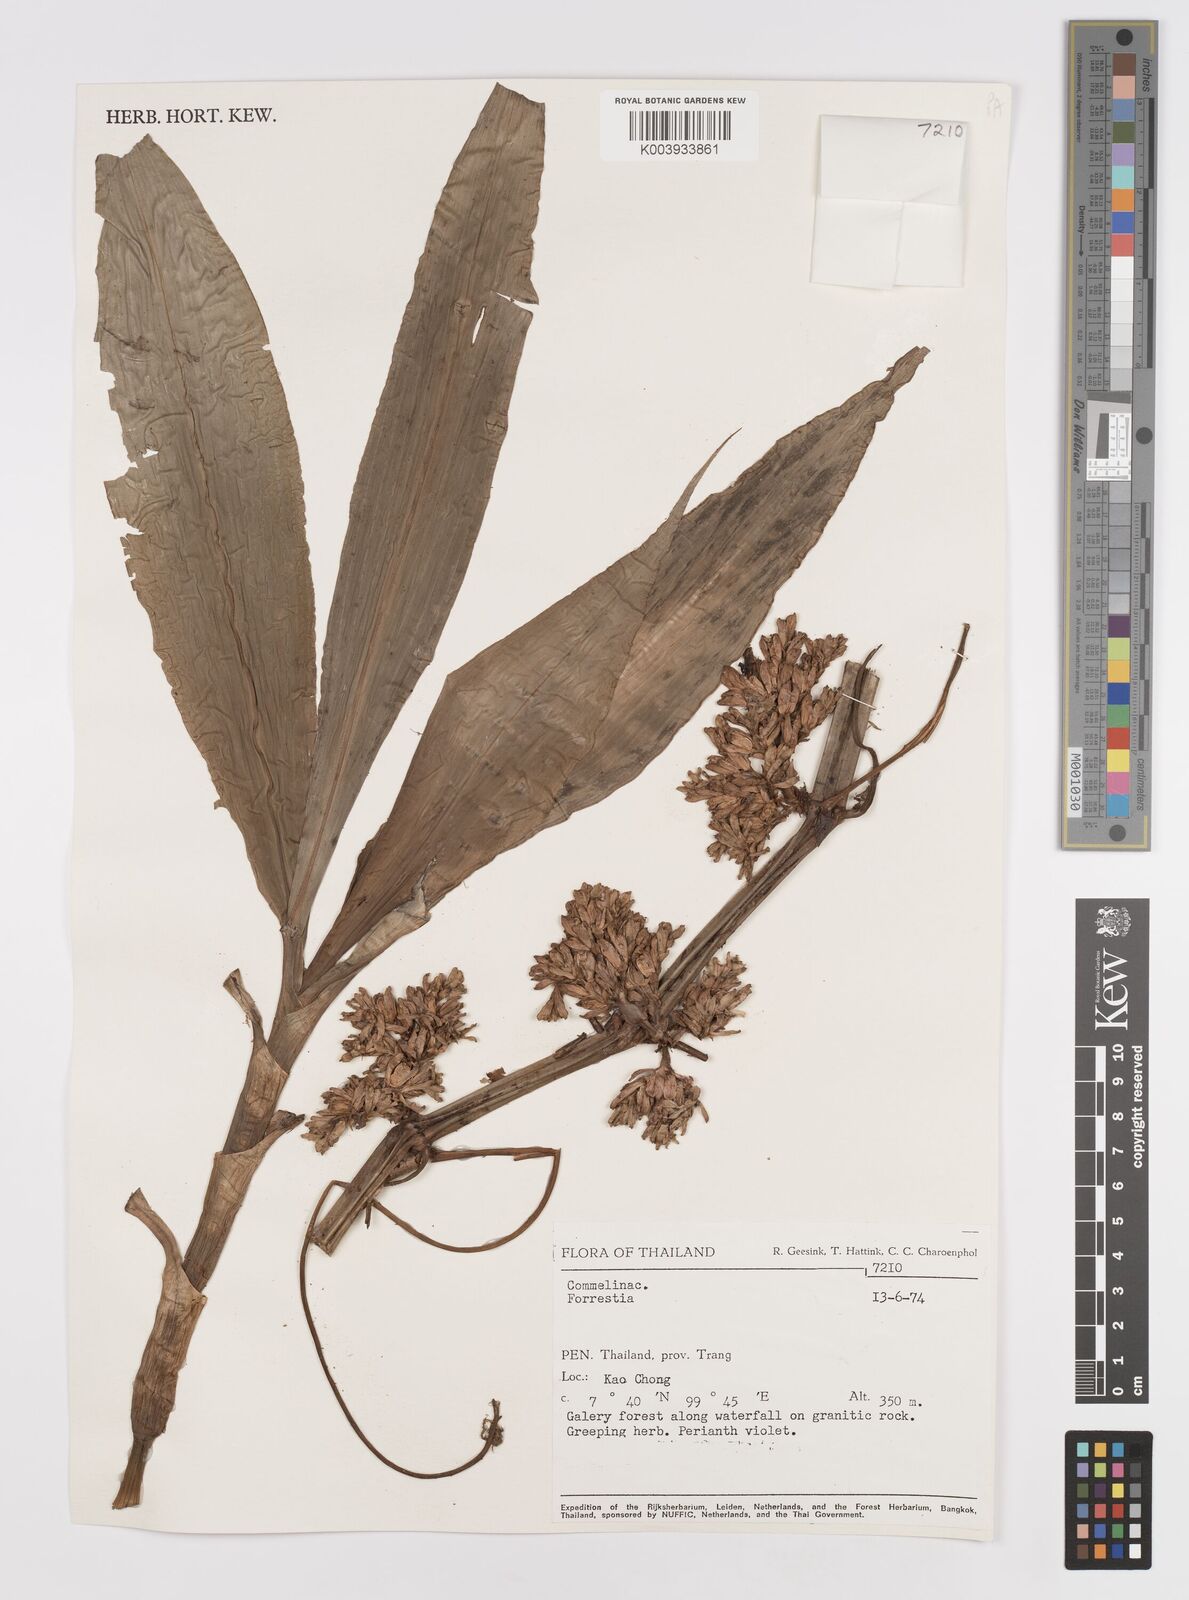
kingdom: Plantae
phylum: Tracheophyta
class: Liliopsida
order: Commelinales
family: Commelinaceae
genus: Amischotolype
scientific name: Amischotolype
